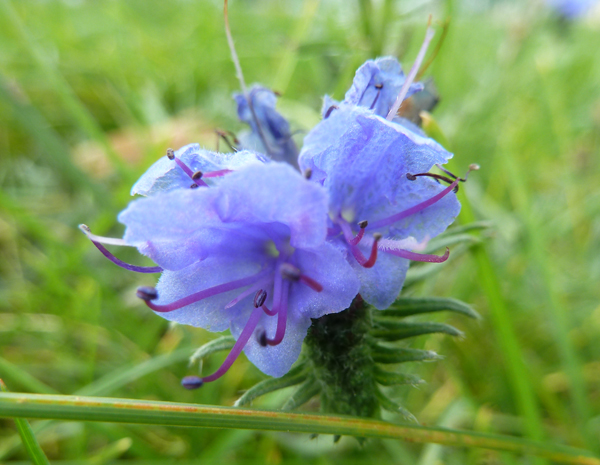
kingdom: Plantae
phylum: Tracheophyta
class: Magnoliopsida
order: Boraginales
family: Boraginaceae
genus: Echium
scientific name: Echium vulgare
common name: Common viper's bugloss
